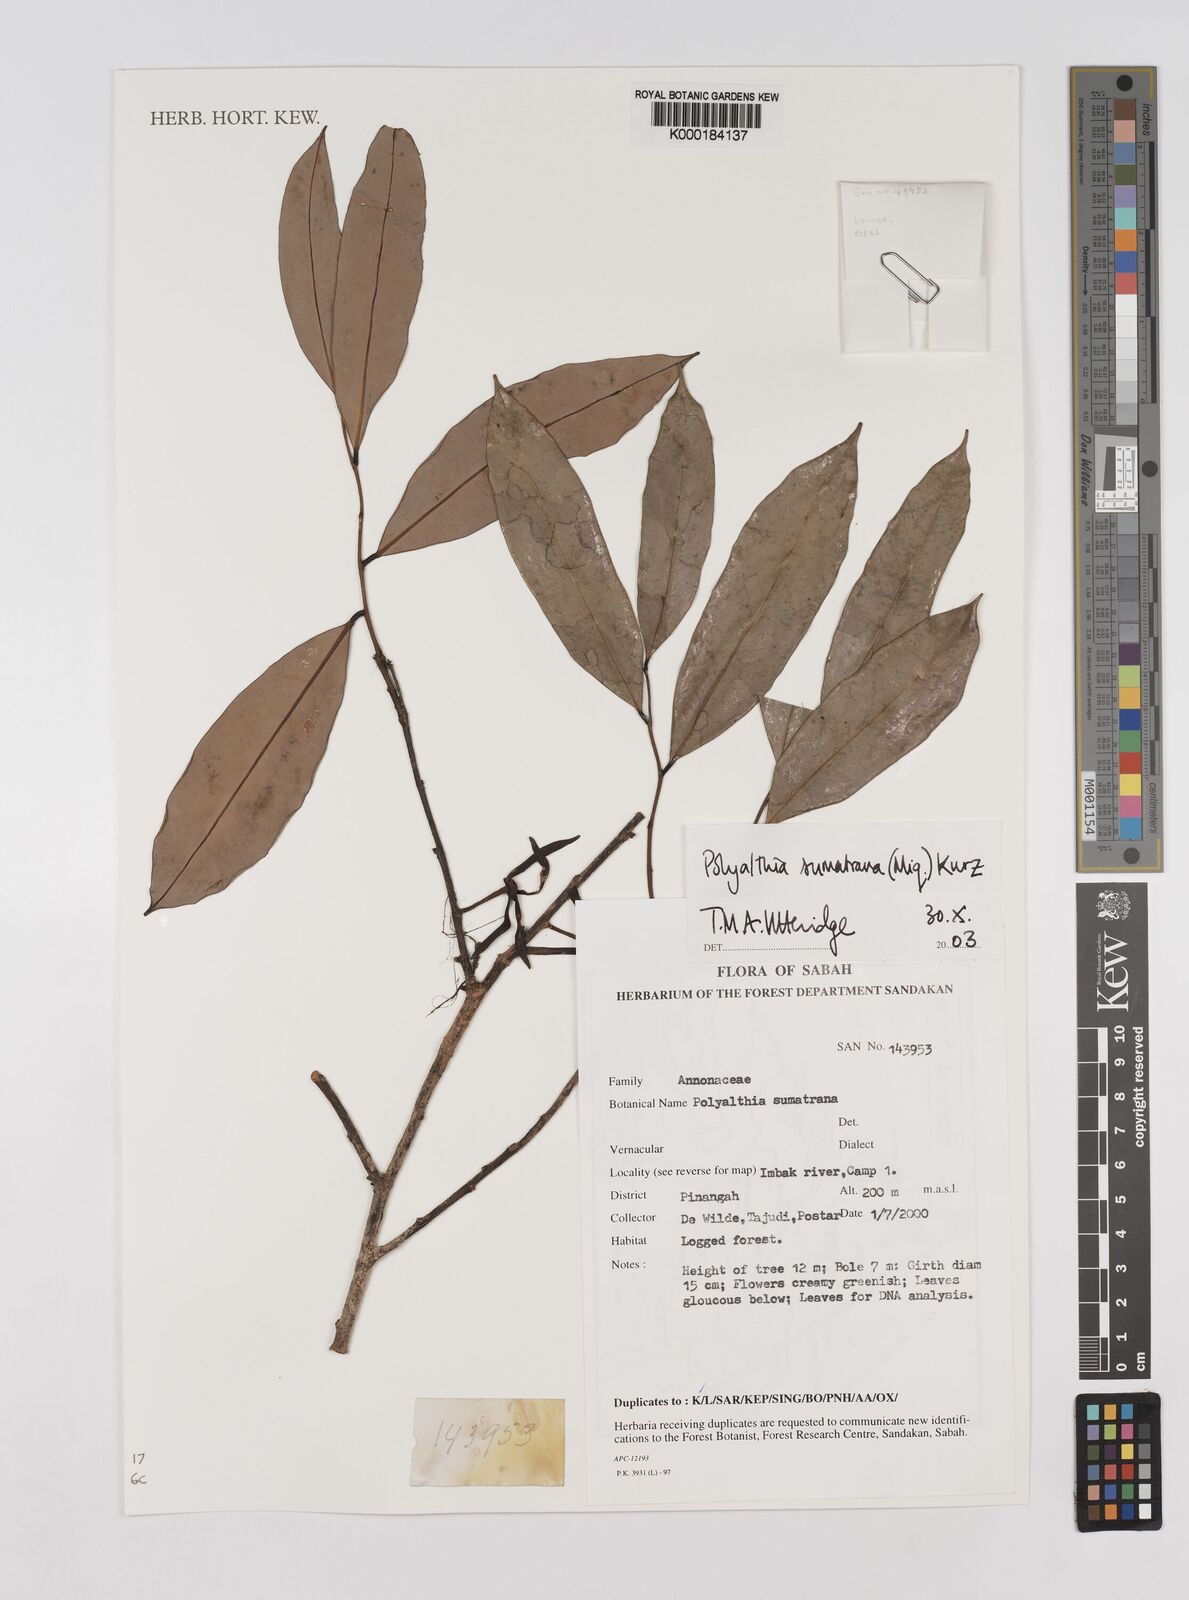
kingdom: Plantae
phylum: Tracheophyta
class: Magnoliopsida
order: Magnoliales
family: Annonaceae
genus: Maasia
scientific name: Maasia sumatrana
